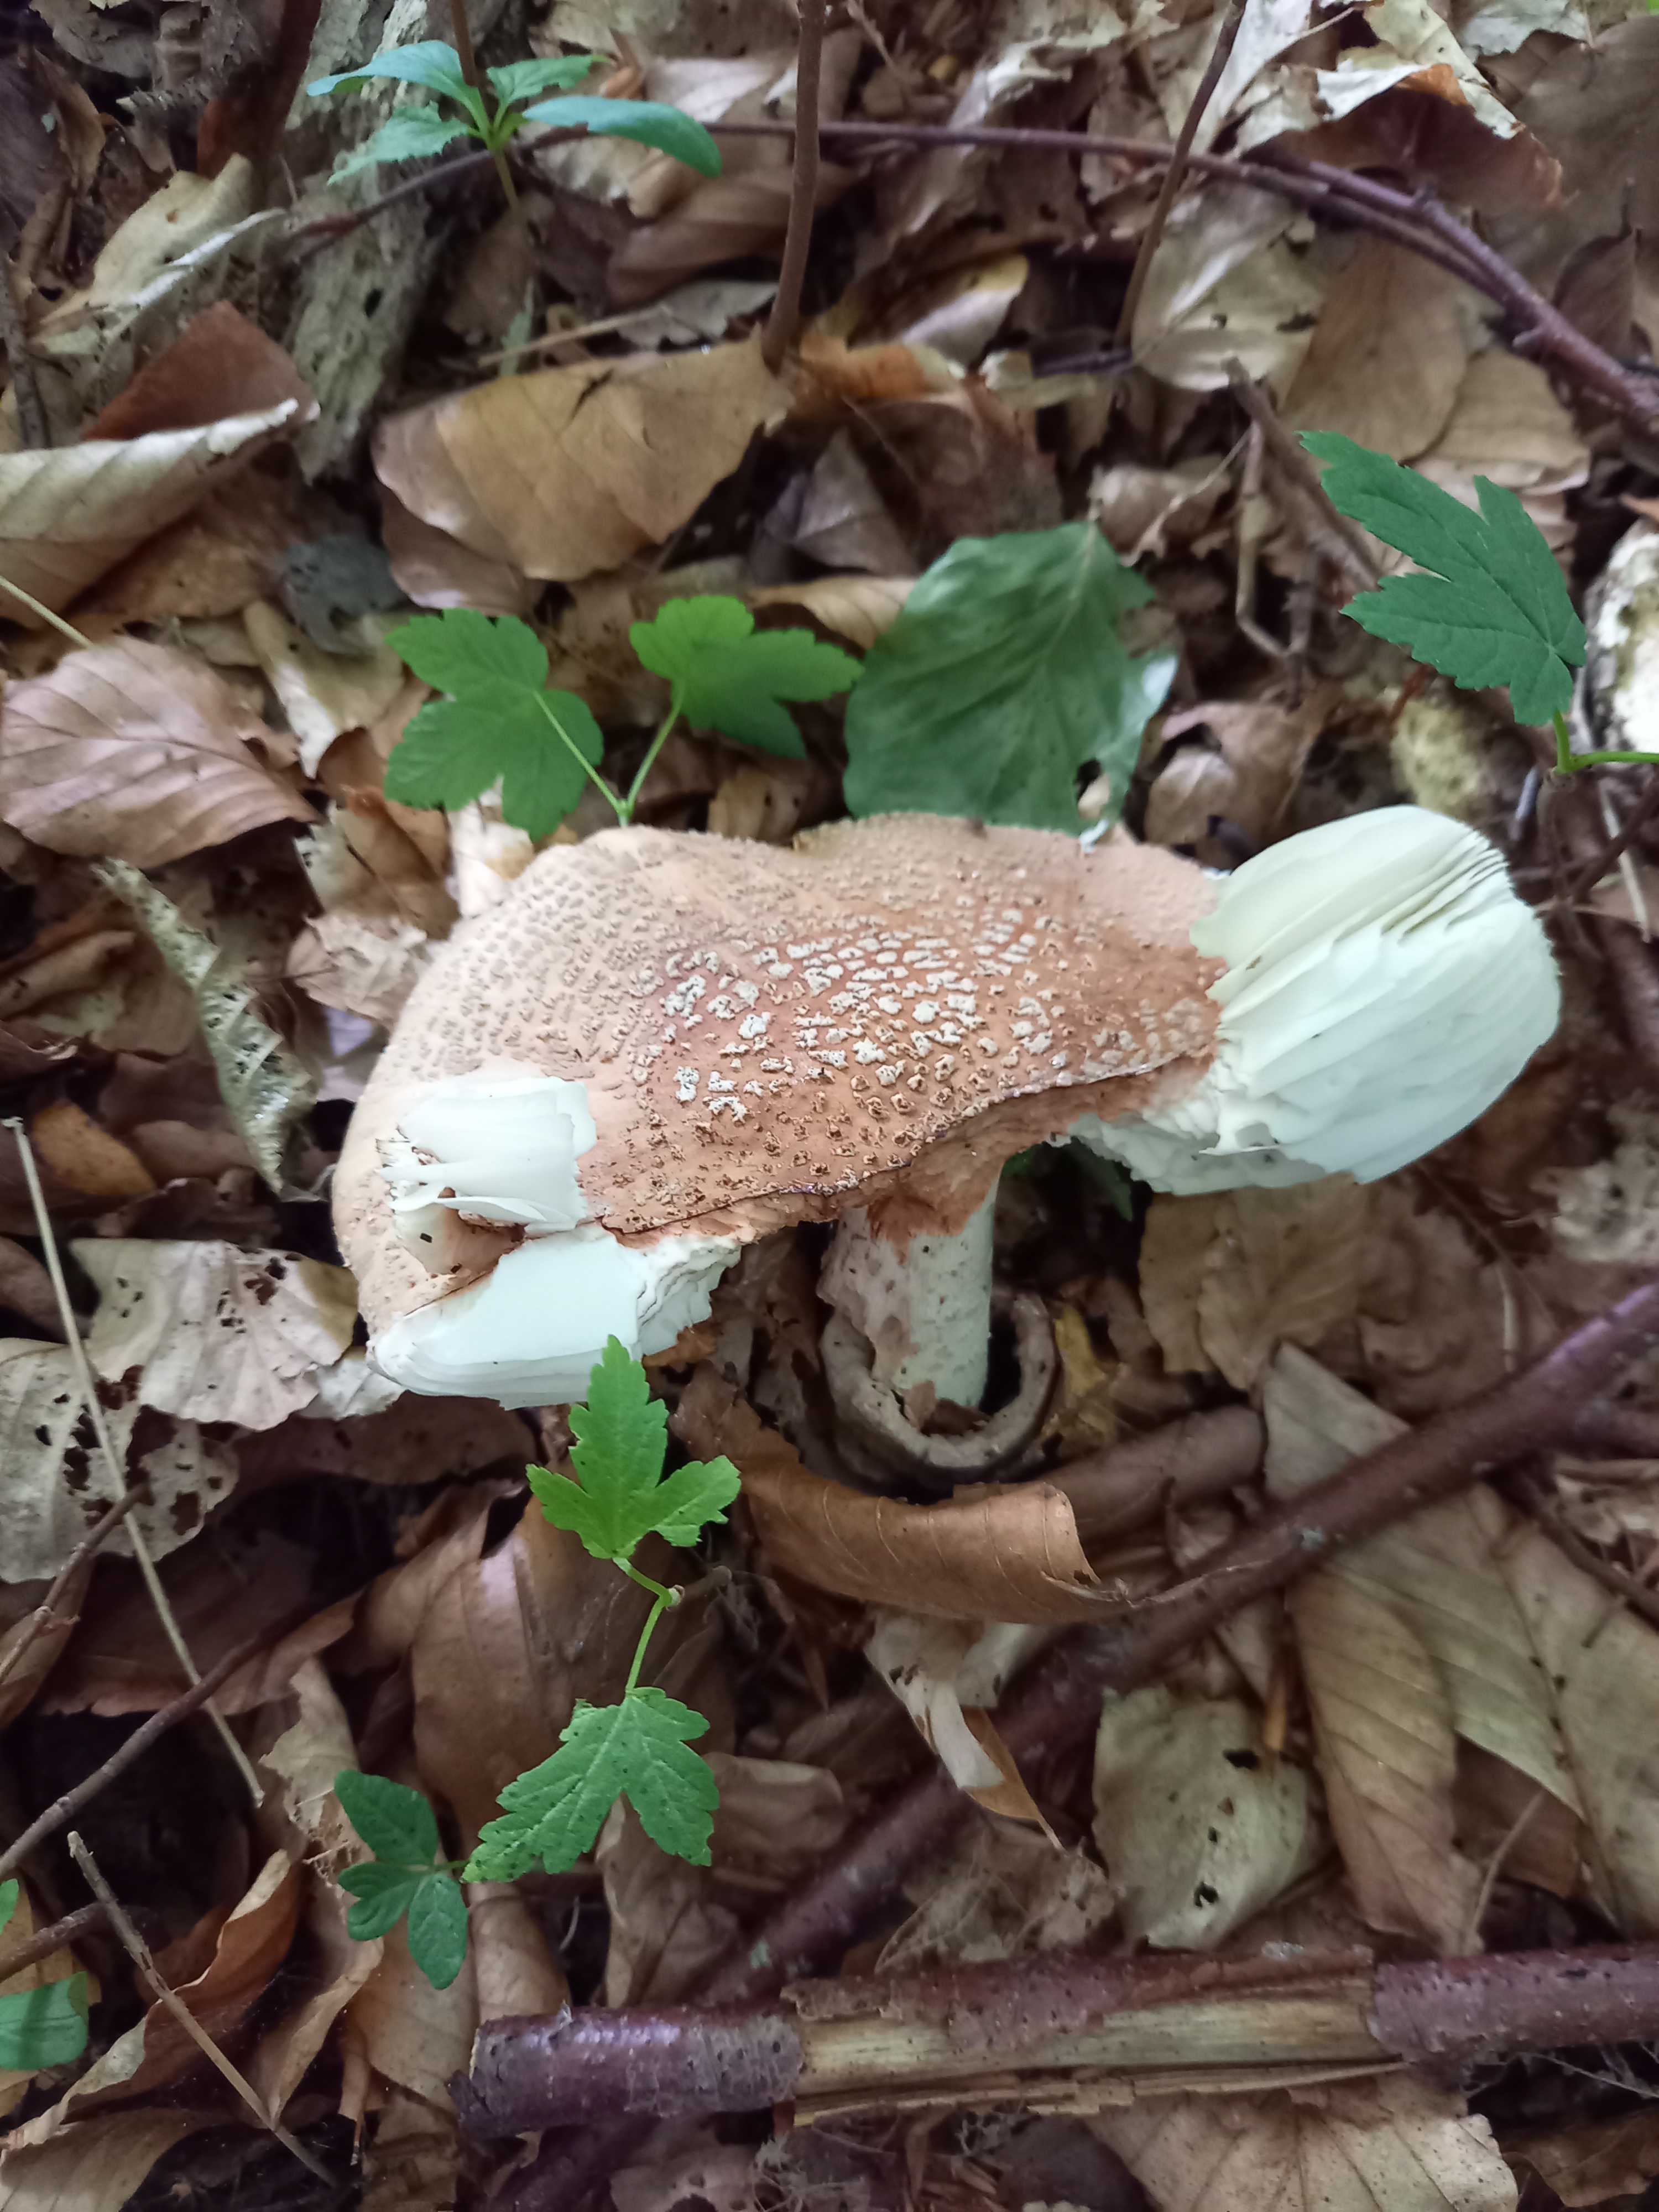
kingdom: Fungi
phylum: Basidiomycota
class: Agaricomycetes
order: Agaricales
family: Amanitaceae
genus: Amanita
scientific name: Amanita rubescens
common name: rødmende fluesvamp
